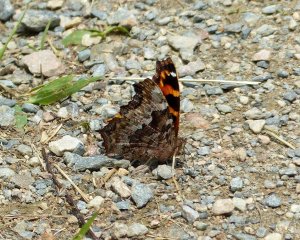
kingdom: Animalia
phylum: Arthropoda
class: Insecta
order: Lepidoptera
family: Nymphalidae
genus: Polygonia
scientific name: Polygonia vaualbum
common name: Compton Tortoiseshell
